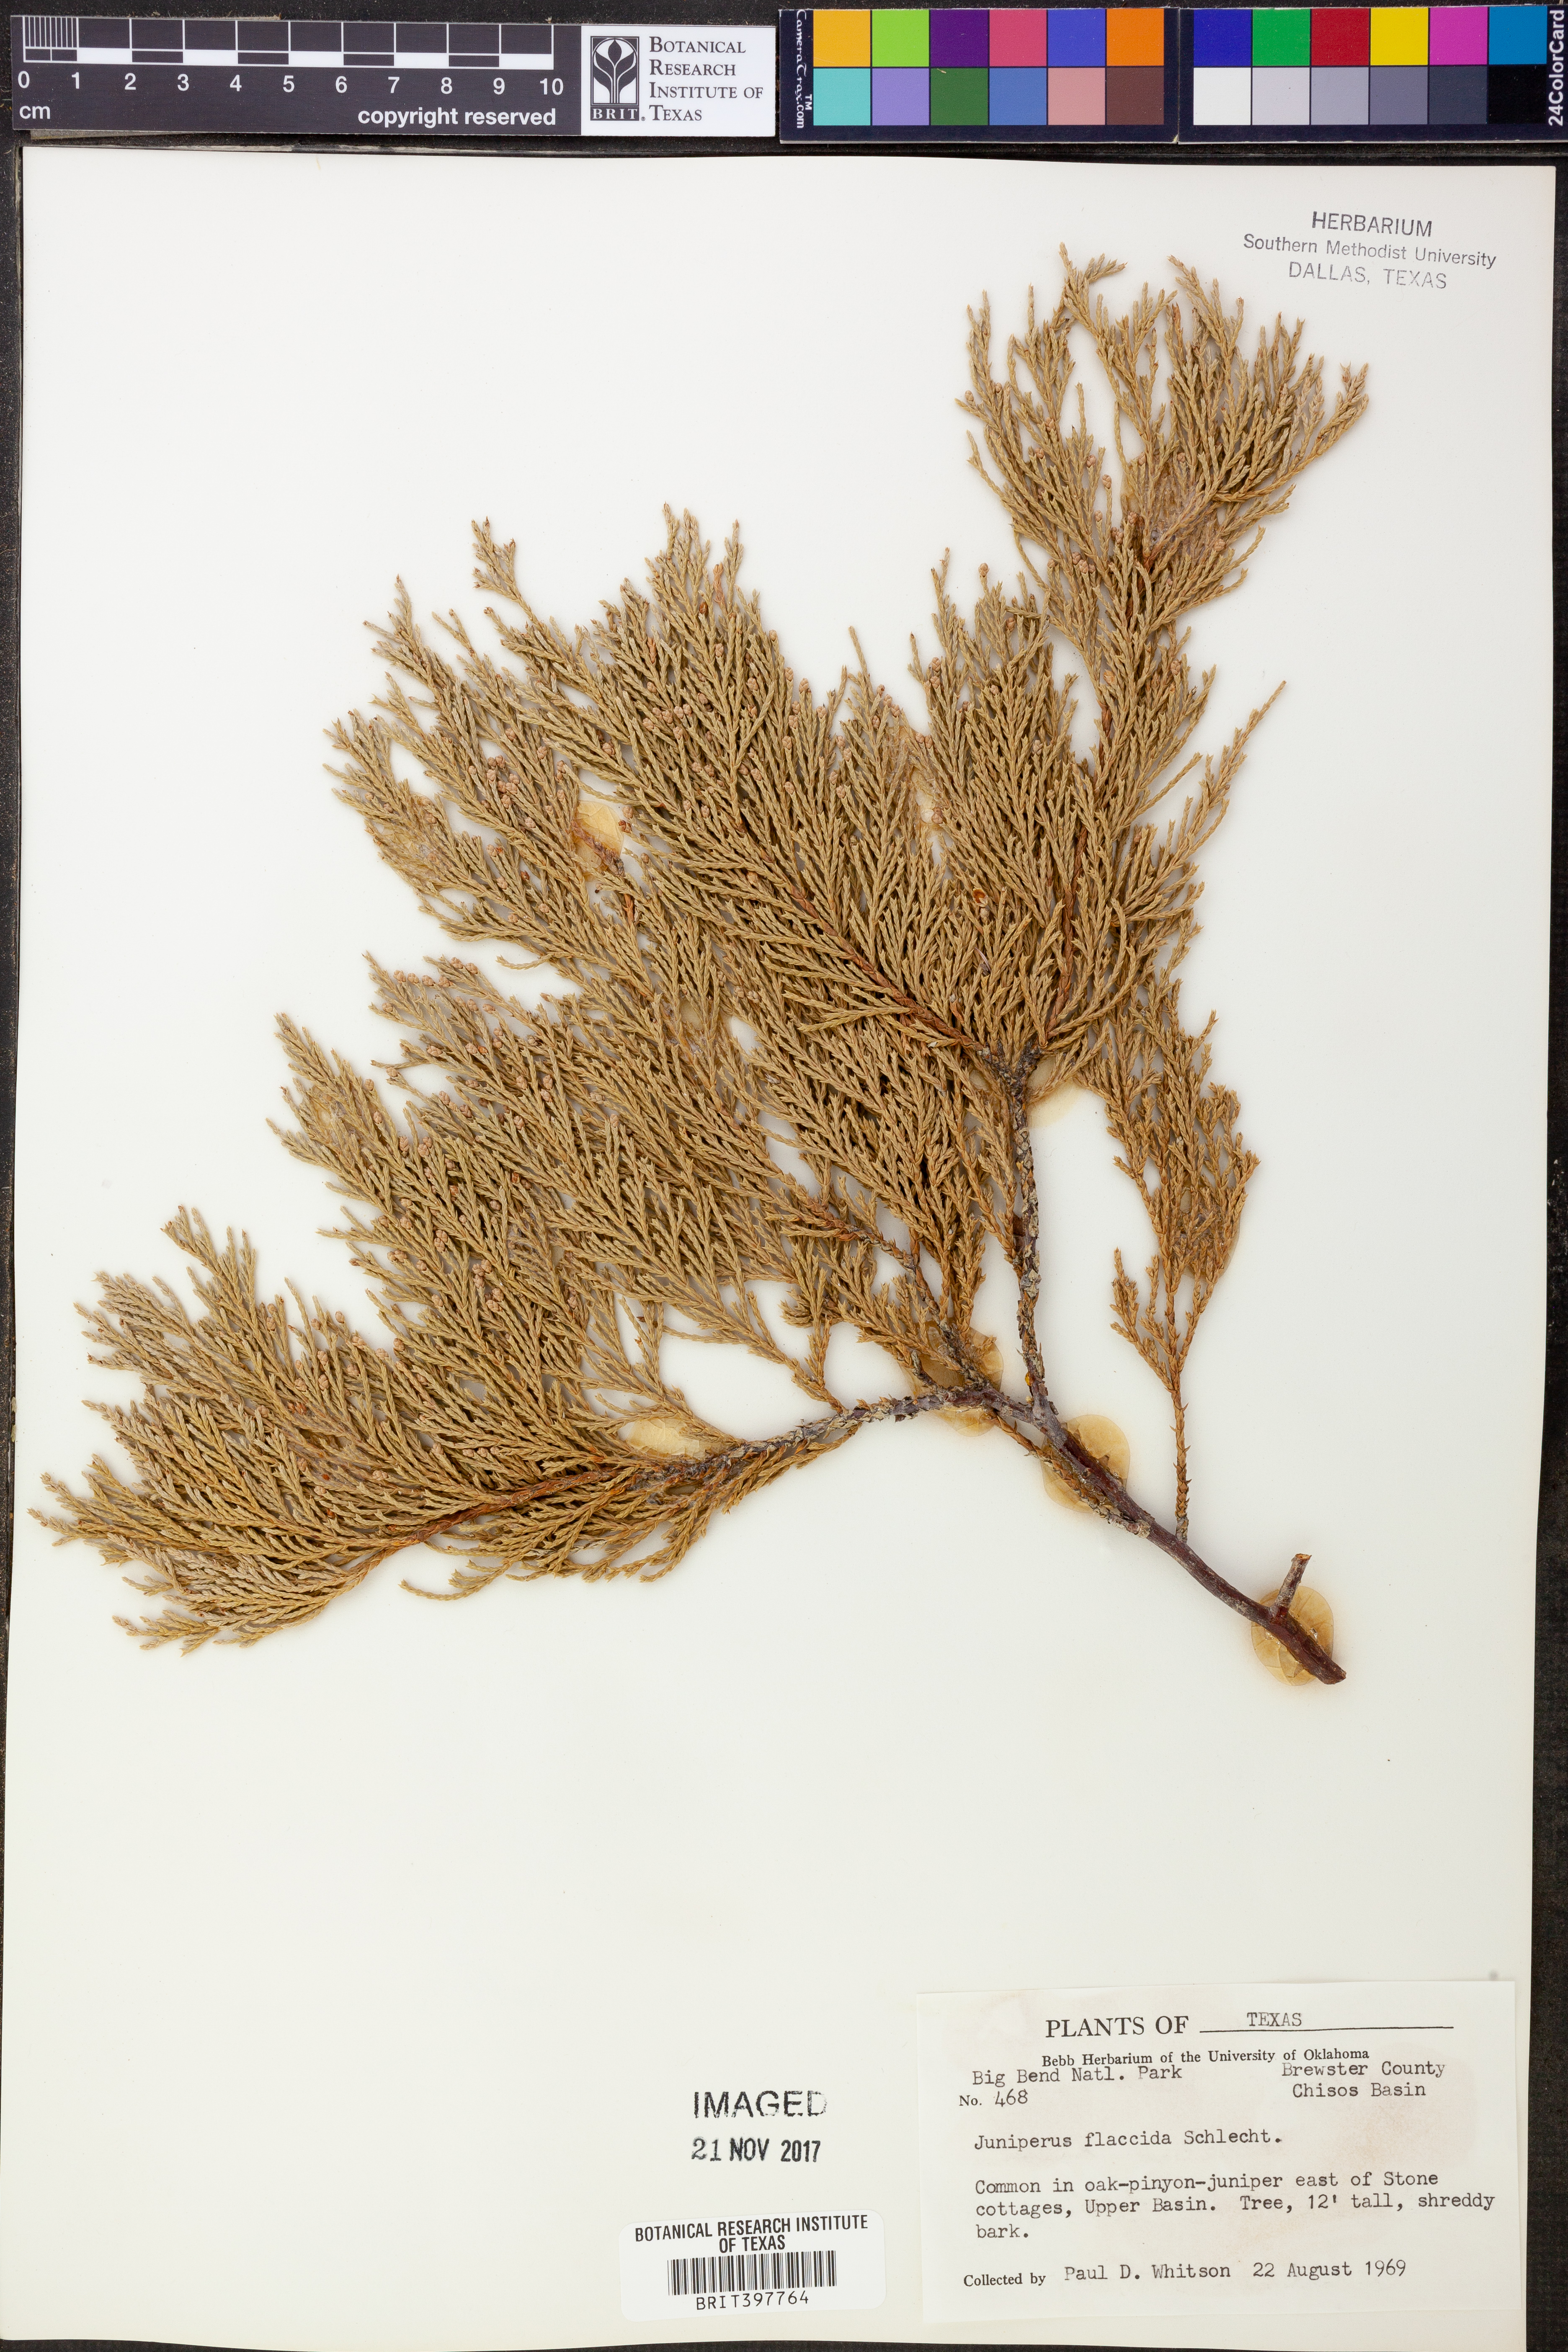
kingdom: Plantae
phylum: Tracheophyta
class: Pinopsida
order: Pinales
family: Cupressaceae
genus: Juniperus
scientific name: Juniperus flaccida
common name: Drooping juniper
